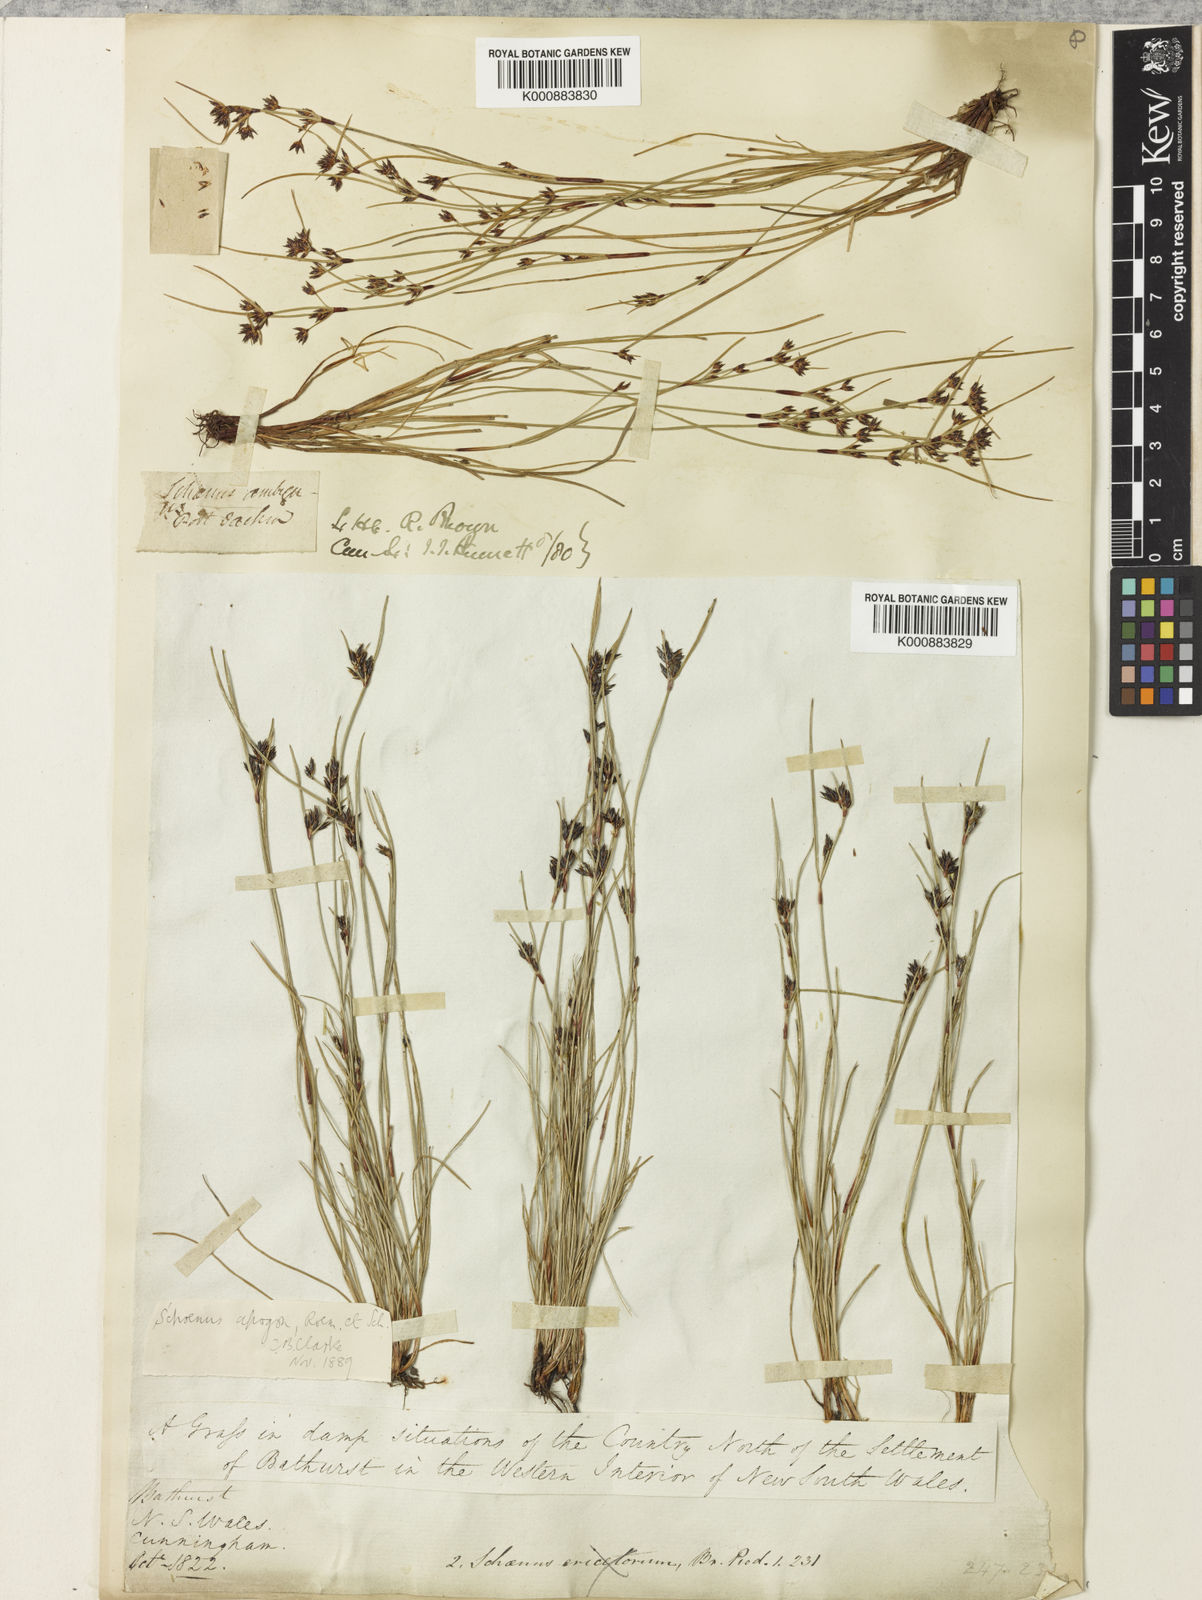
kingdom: Plantae
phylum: Tracheophyta
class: Liliopsida
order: Poales
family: Cyperaceae
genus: Schoenus
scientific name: Schoenus apogon
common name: Smooth bogrush
